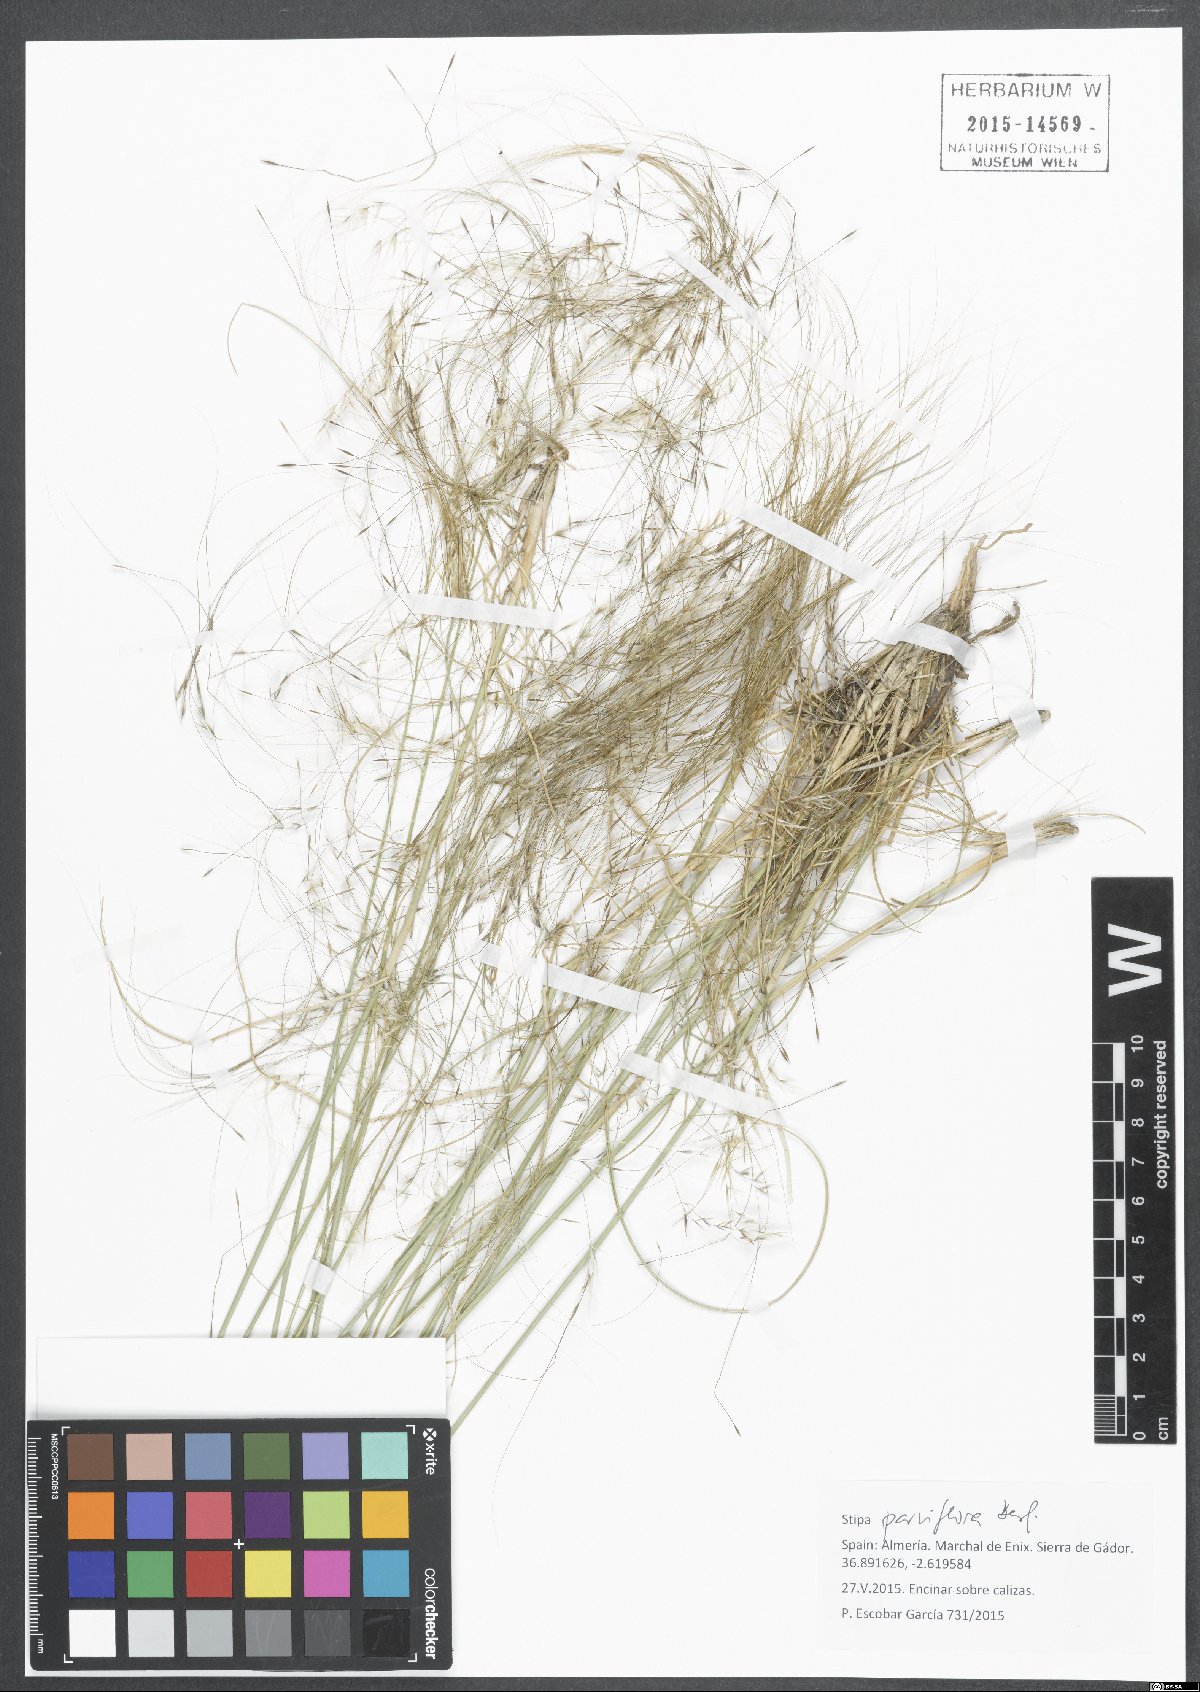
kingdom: Plantae
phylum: Tracheophyta
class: Liliopsida
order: Poales
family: Poaceae
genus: Achnatherum
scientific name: Achnatherum parviflorum
